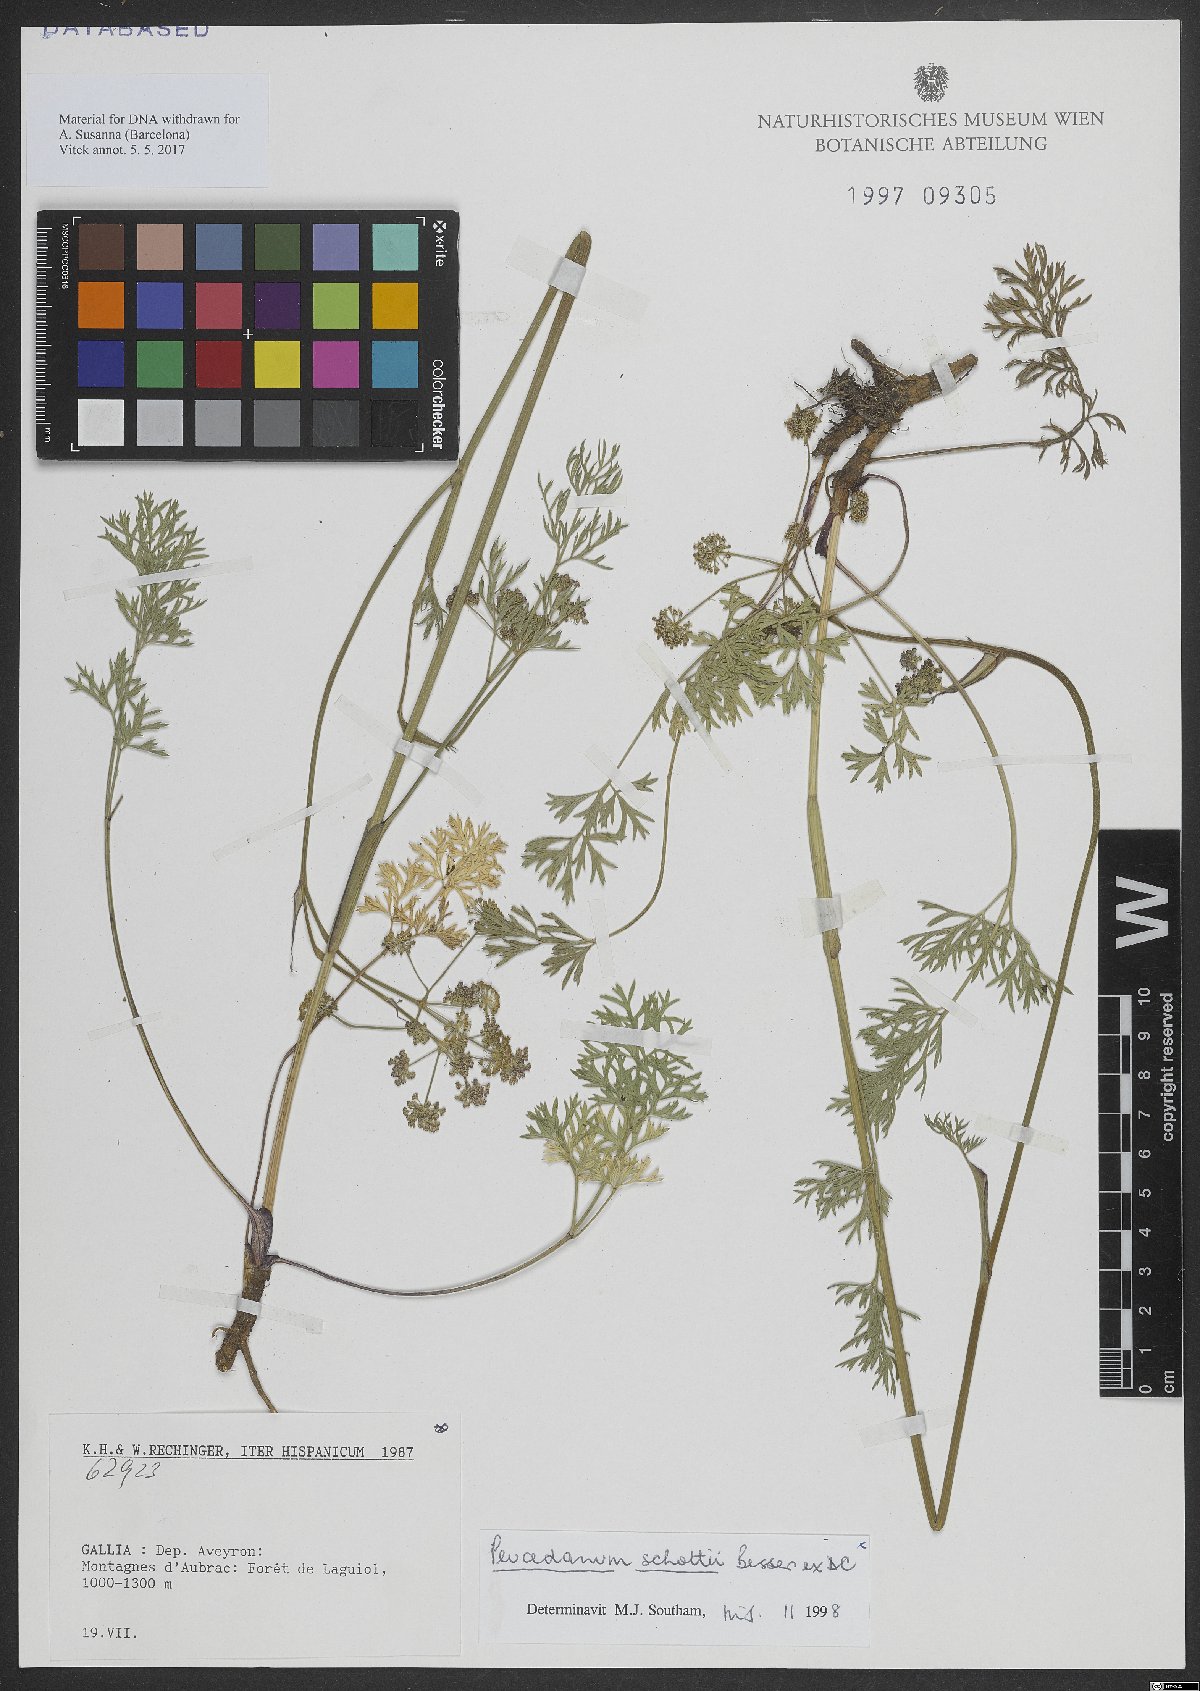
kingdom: Plantae
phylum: Tracheophyta
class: Magnoliopsida
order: Apiales
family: Apiaceae
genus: Peucedanum
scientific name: Peucedanum
